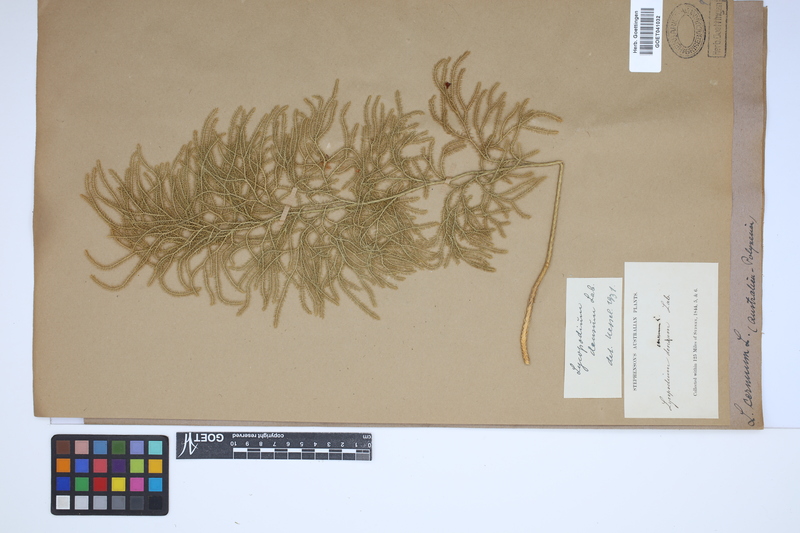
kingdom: Plantae
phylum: Tracheophyta
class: Lycopodiopsida
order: Lycopodiales
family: Lycopodiaceae
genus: Palhinhaea
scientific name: Palhinhaea cernua
